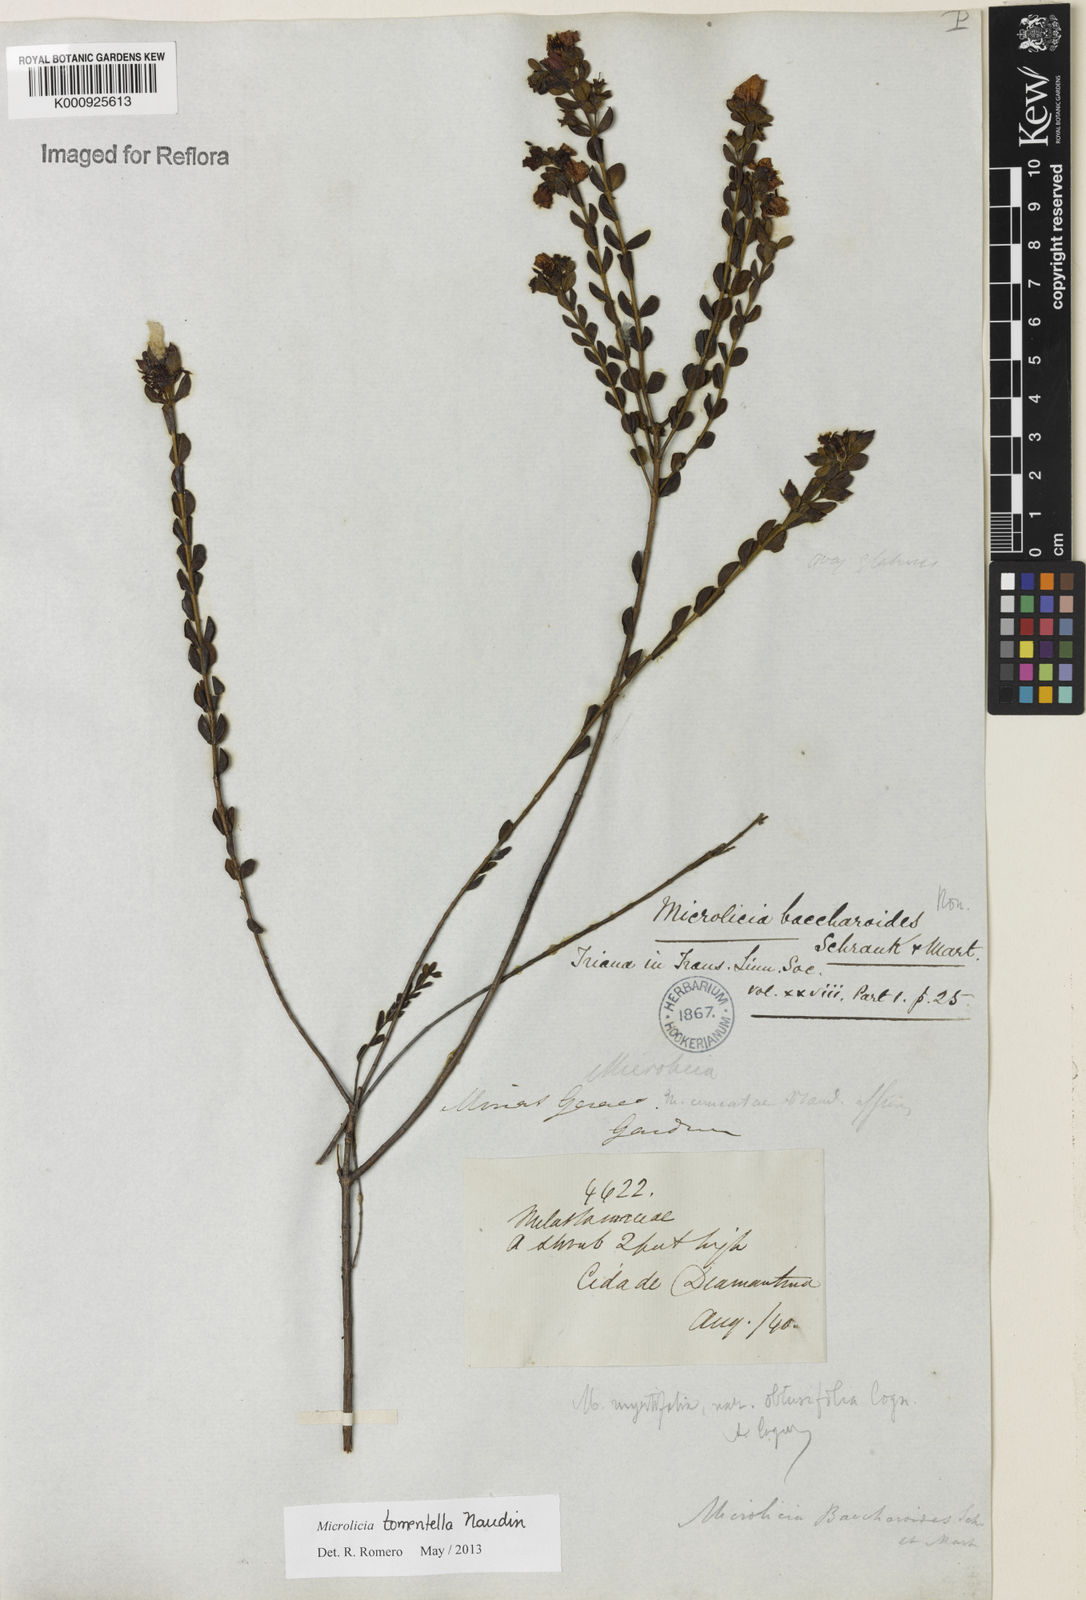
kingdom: Plantae
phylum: Tracheophyta
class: Magnoliopsida
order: Myrtales
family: Melastomataceae
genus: Microlicia
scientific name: Microlicia tomentella
